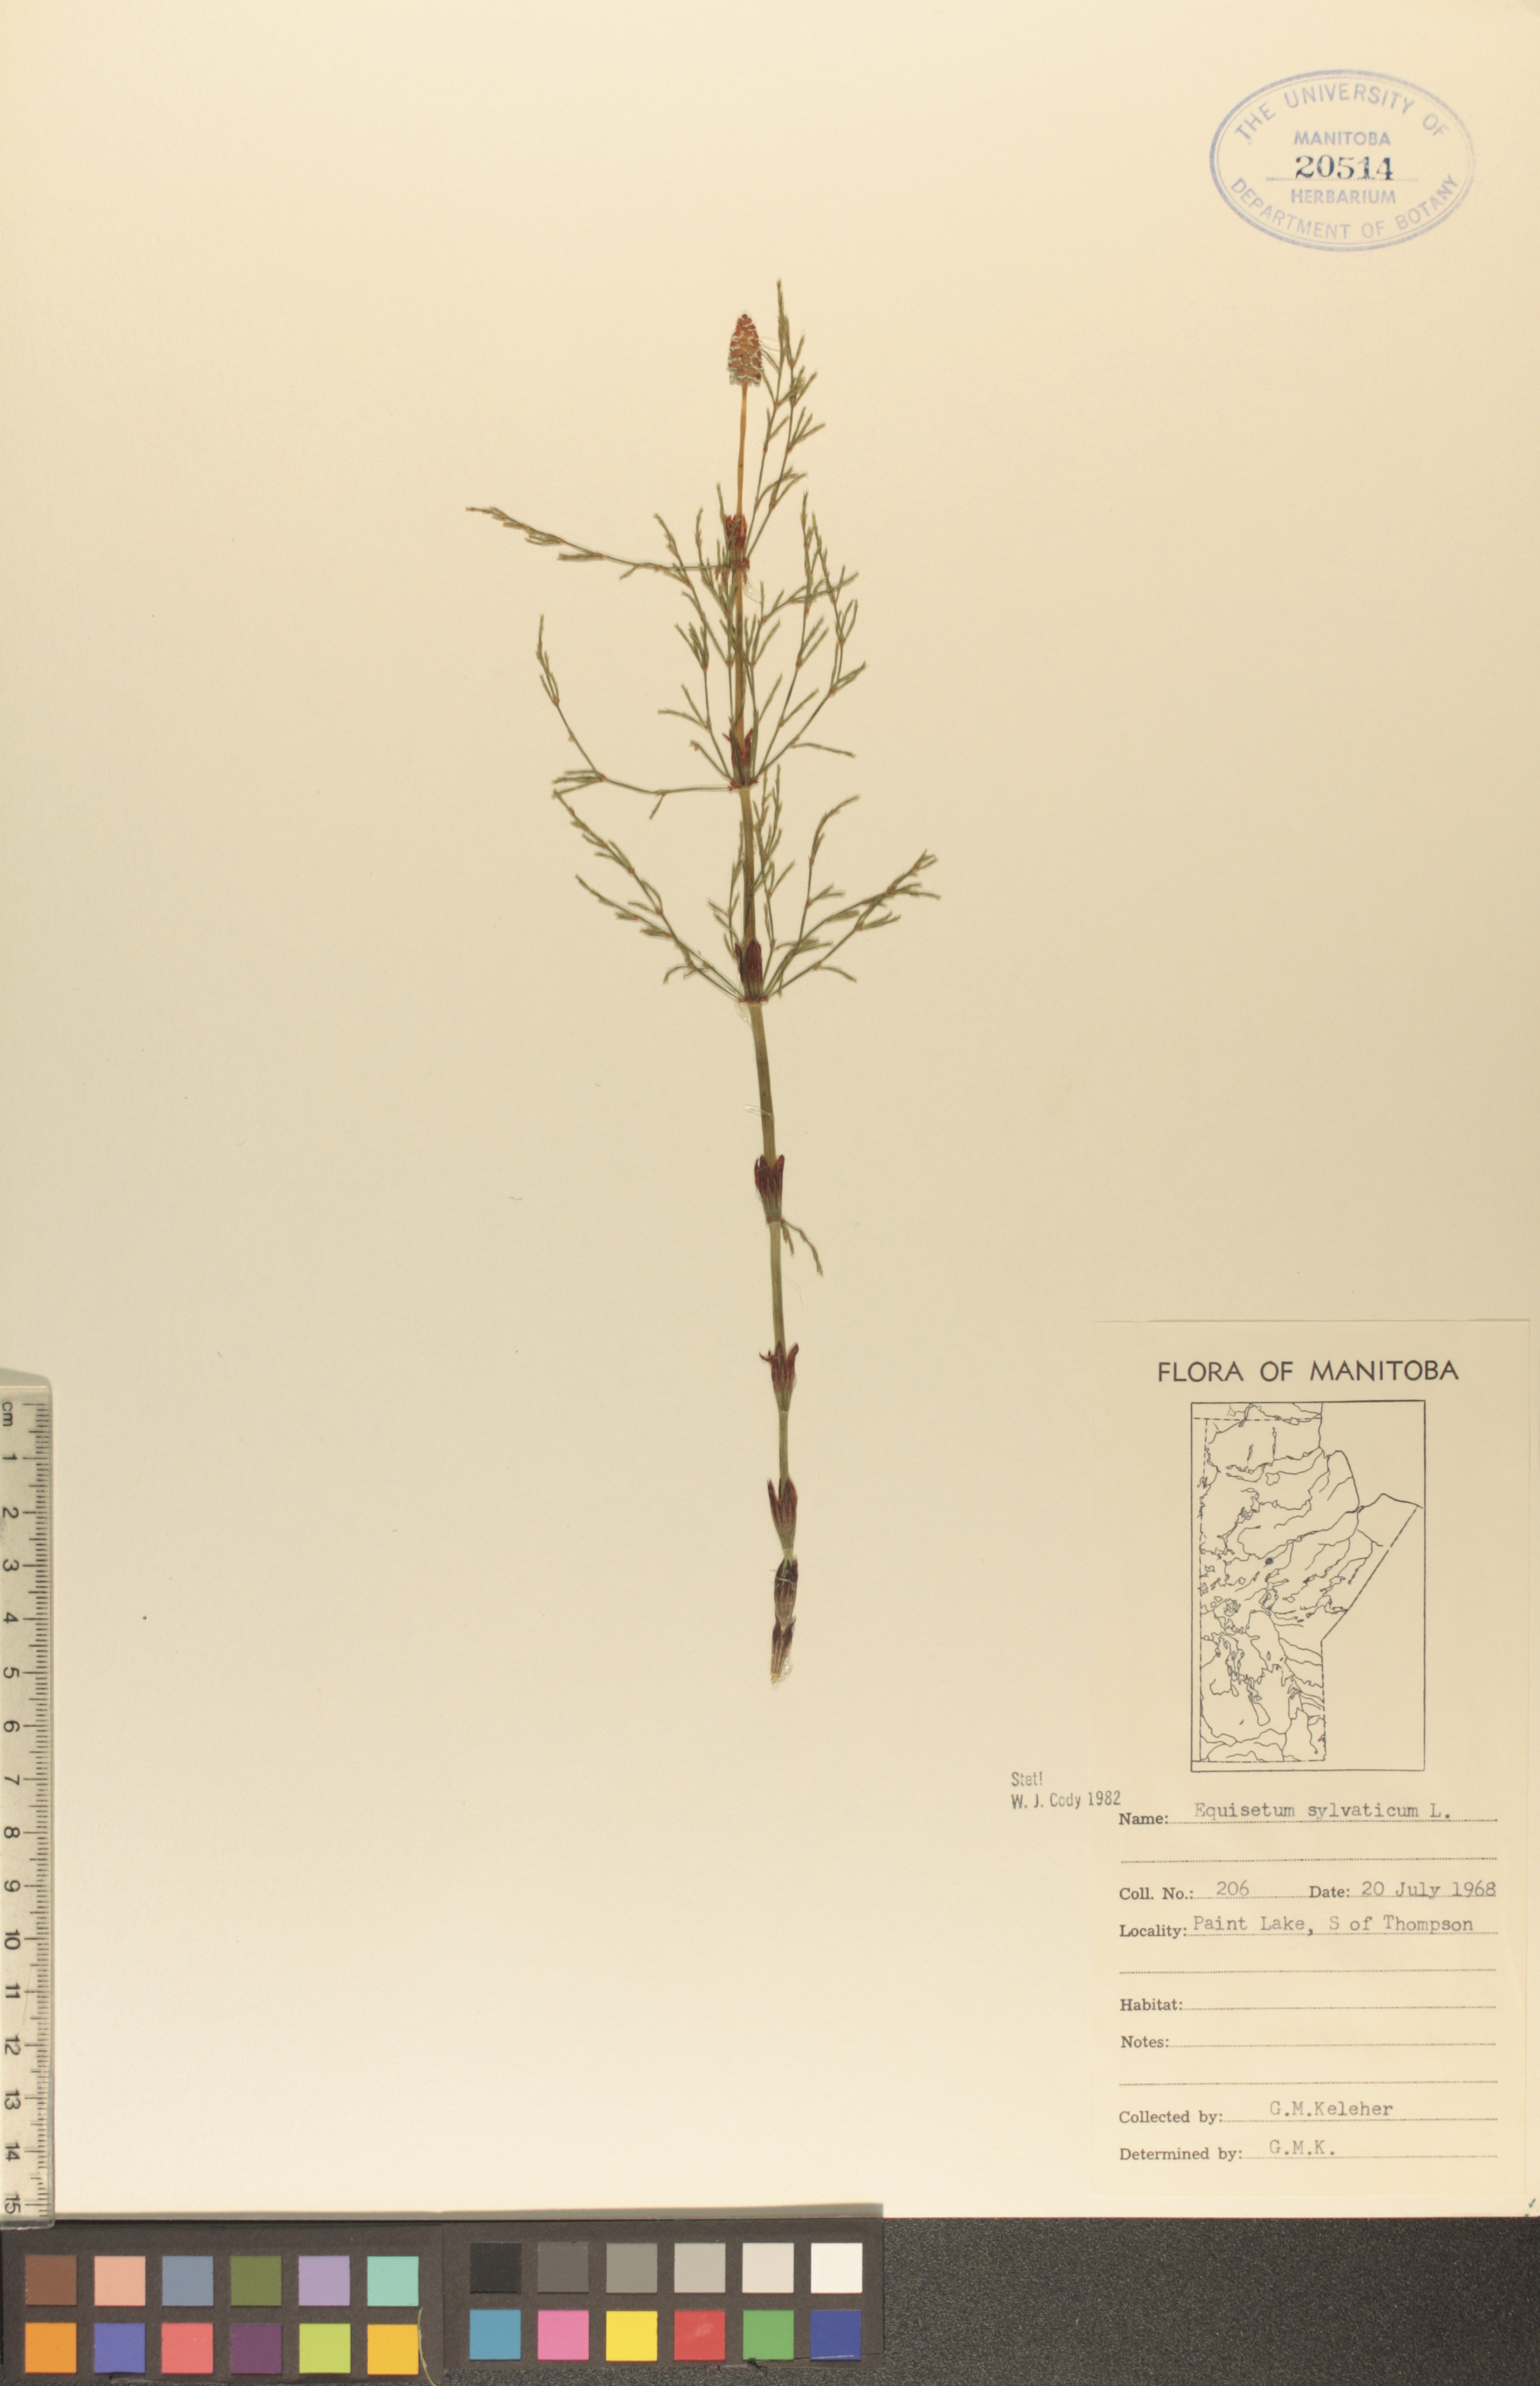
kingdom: Plantae
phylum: Tracheophyta
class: Polypodiopsida
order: Equisetales
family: Equisetaceae
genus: Equisetum
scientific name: Equisetum sylvaticum
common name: Wood horsetail
